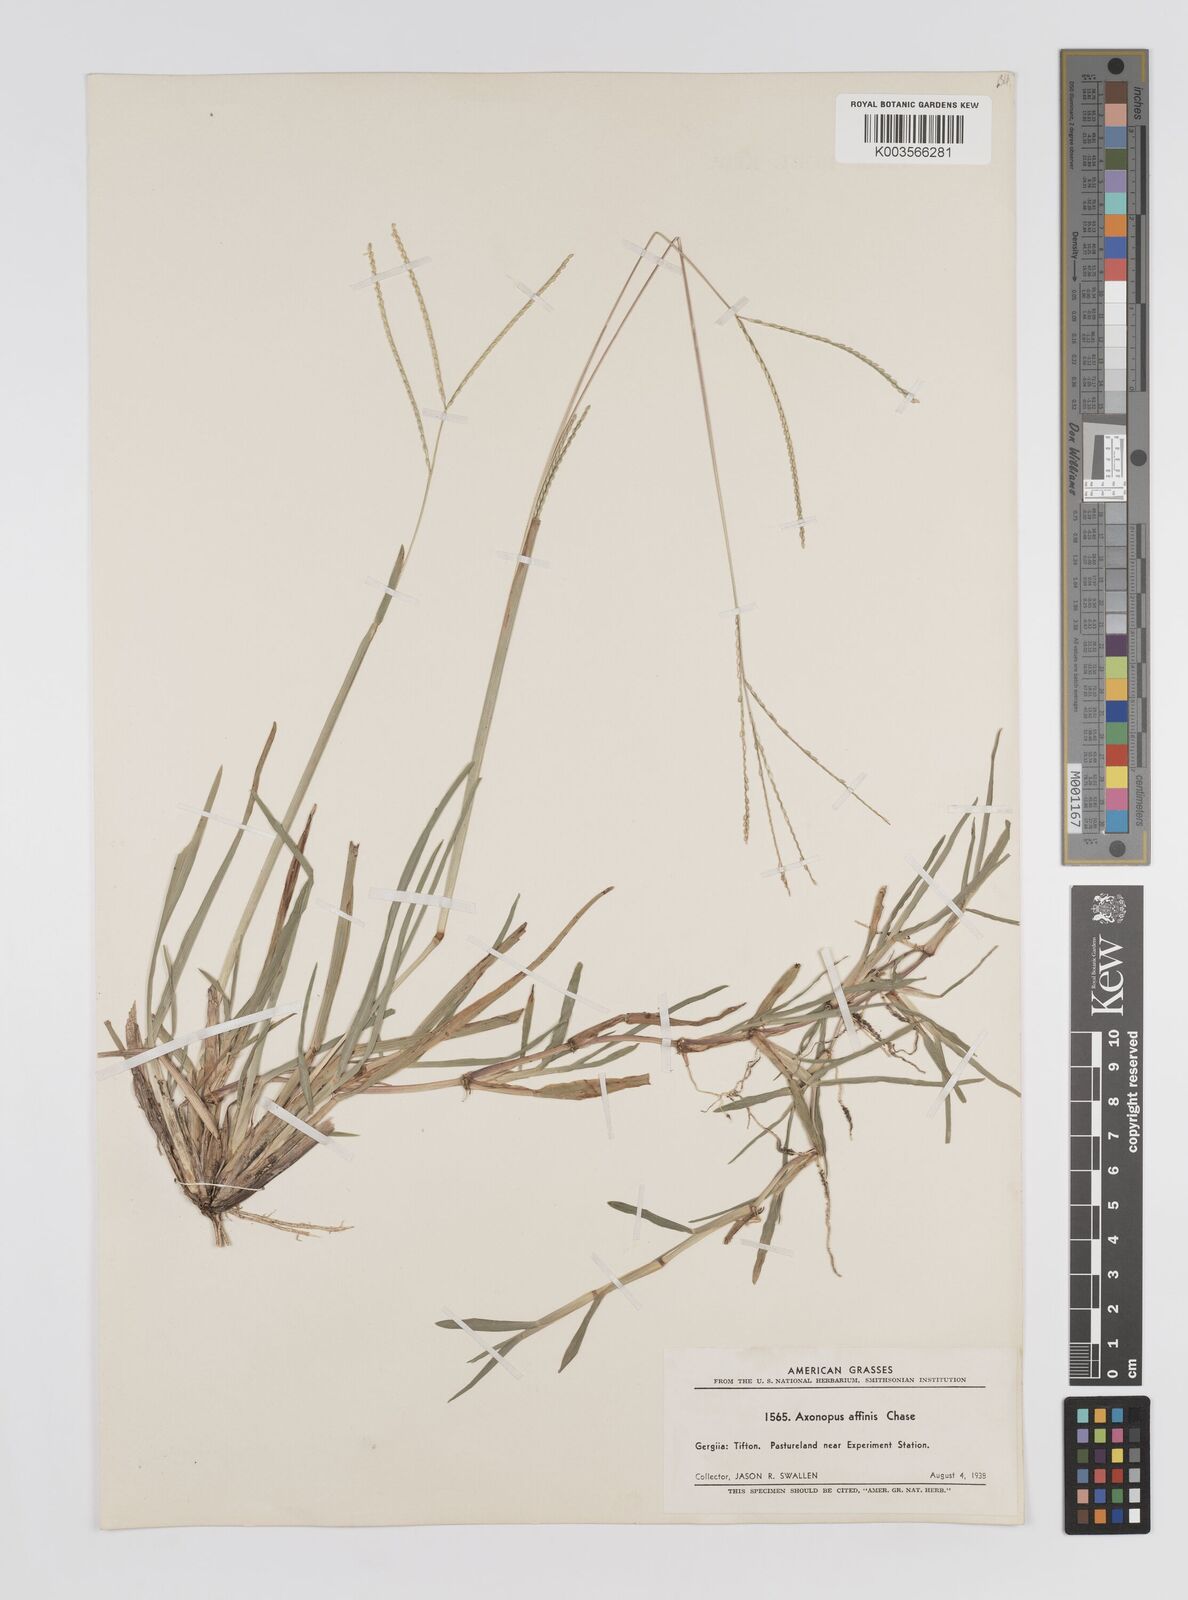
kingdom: Plantae
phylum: Tracheophyta
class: Liliopsida
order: Poales
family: Poaceae
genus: Axonopus
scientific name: Axonopus fissifolius
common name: Common carpetgrass
